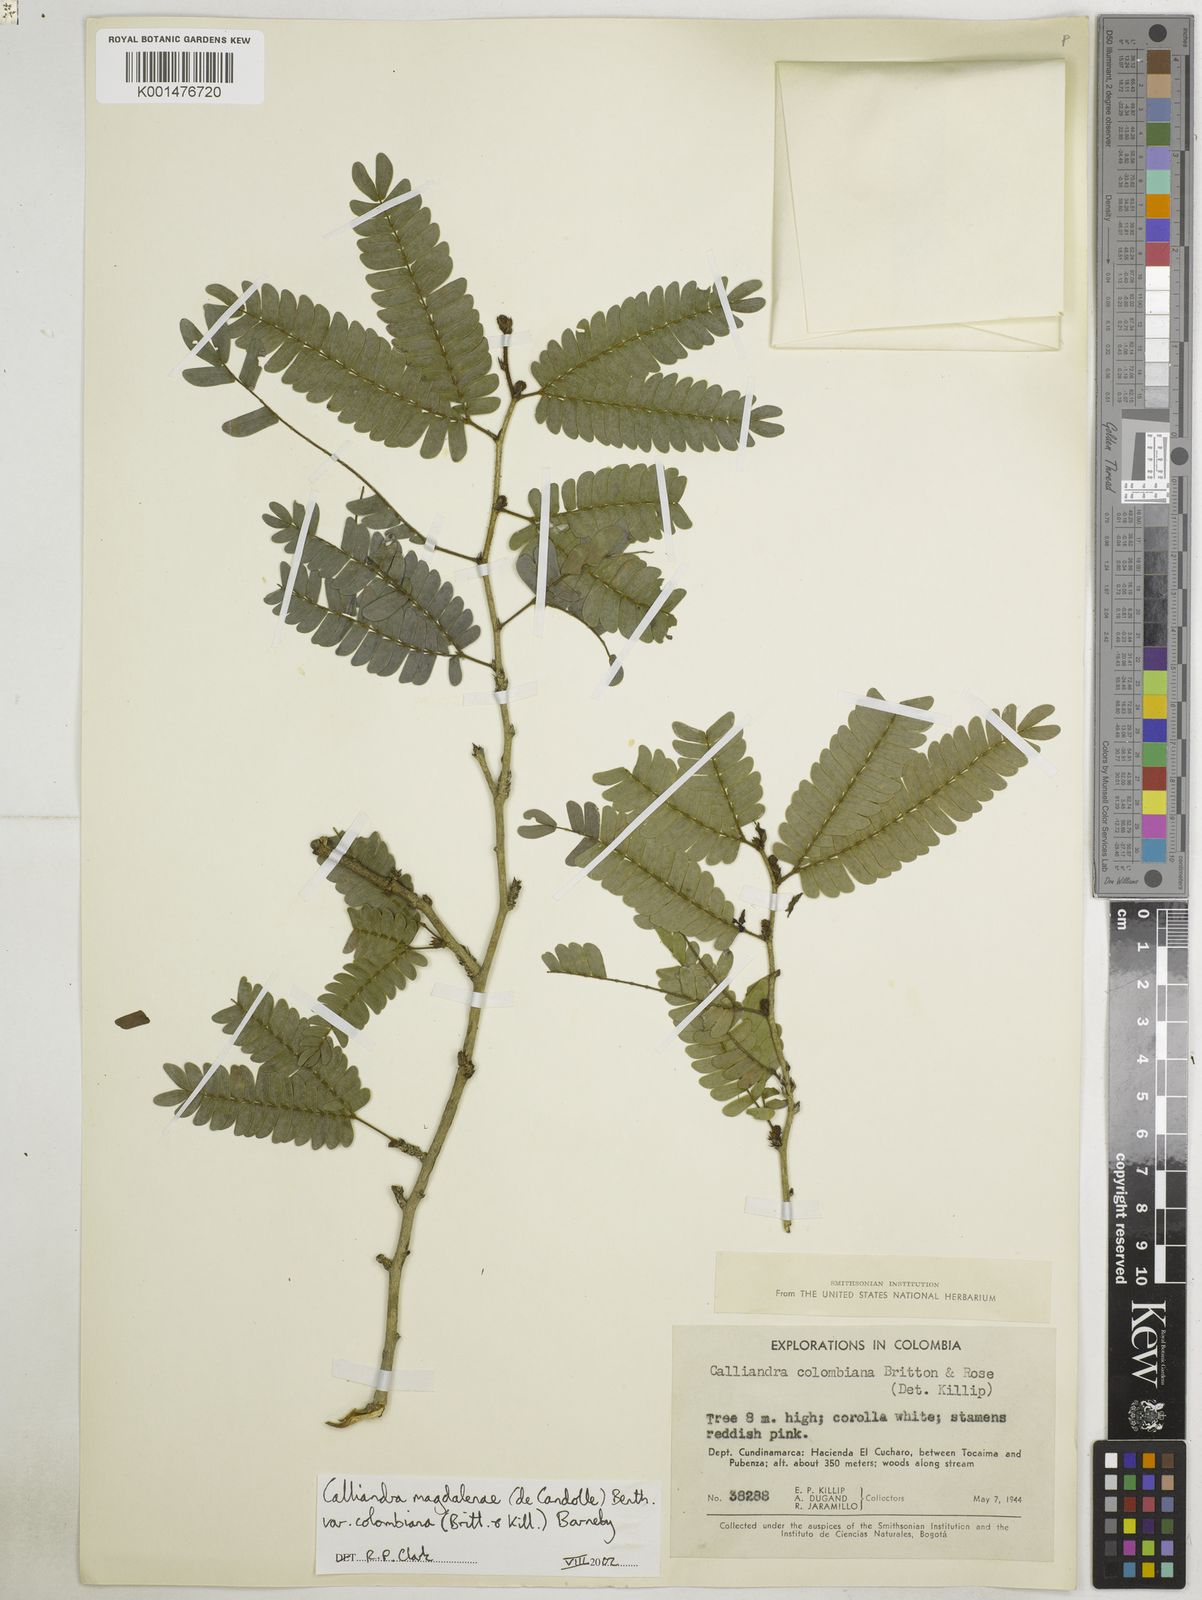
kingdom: Plantae
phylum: Tracheophyta
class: Magnoliopsida
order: Fabales
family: Fabaceae
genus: Calliandra
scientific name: Calliandra magdalenae
